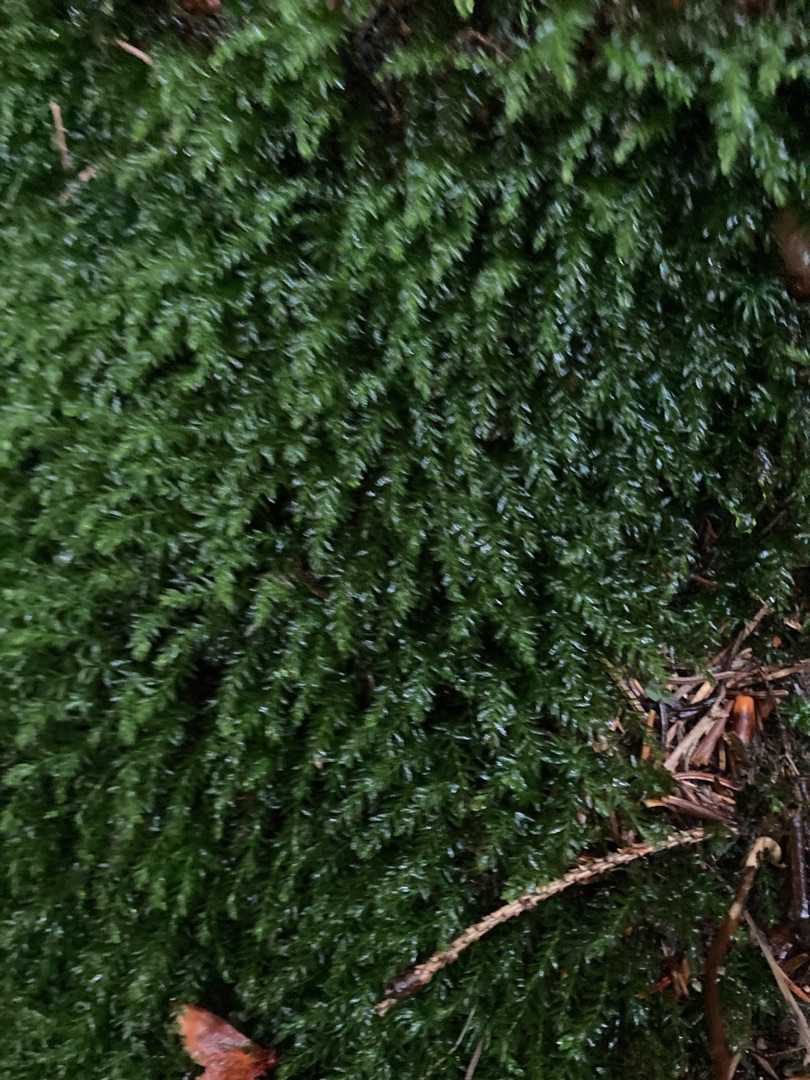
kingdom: Plantae
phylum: Bryophyta
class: Bryopsida
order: Bryales
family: Mniaceae
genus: Mnium
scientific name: Mnium hornum
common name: Brunfiltet stjernemos
